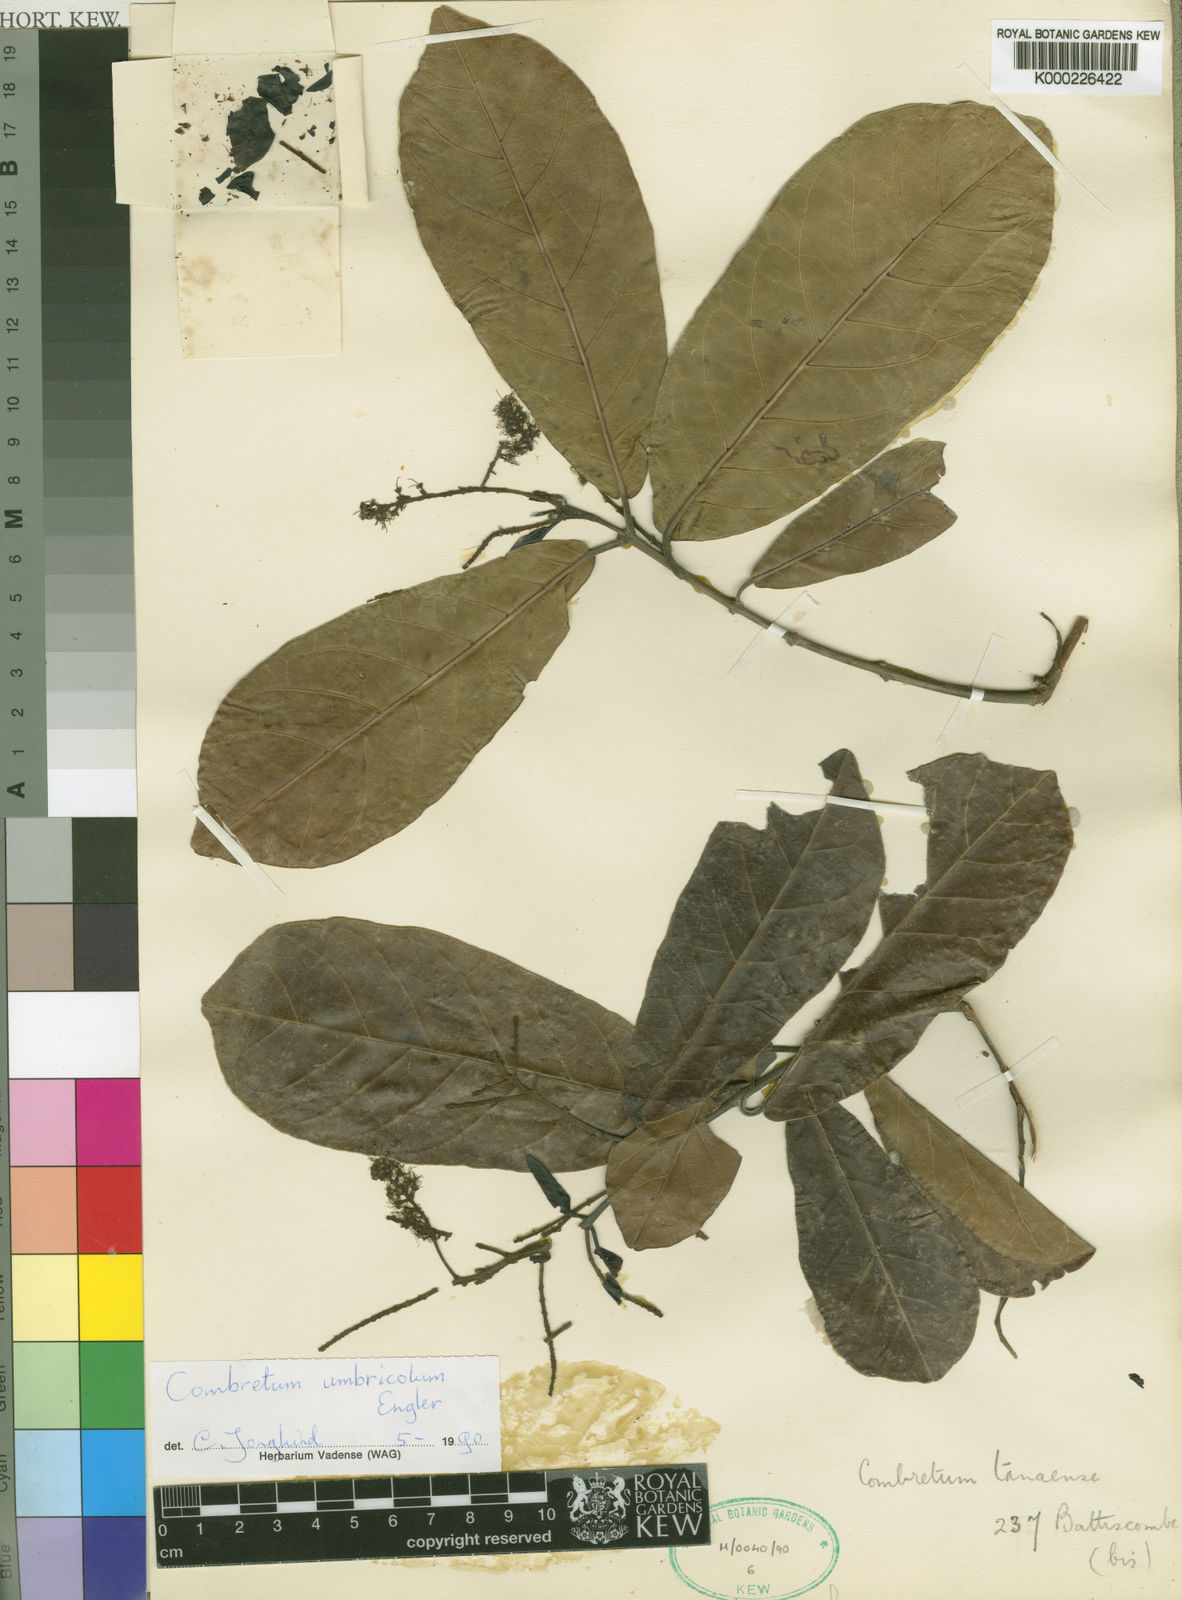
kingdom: Plantae
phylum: Tracheophyta
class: Magnoliopsida
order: Myrtales
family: Combretaceae
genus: Combretum
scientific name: Combretum umbricola
